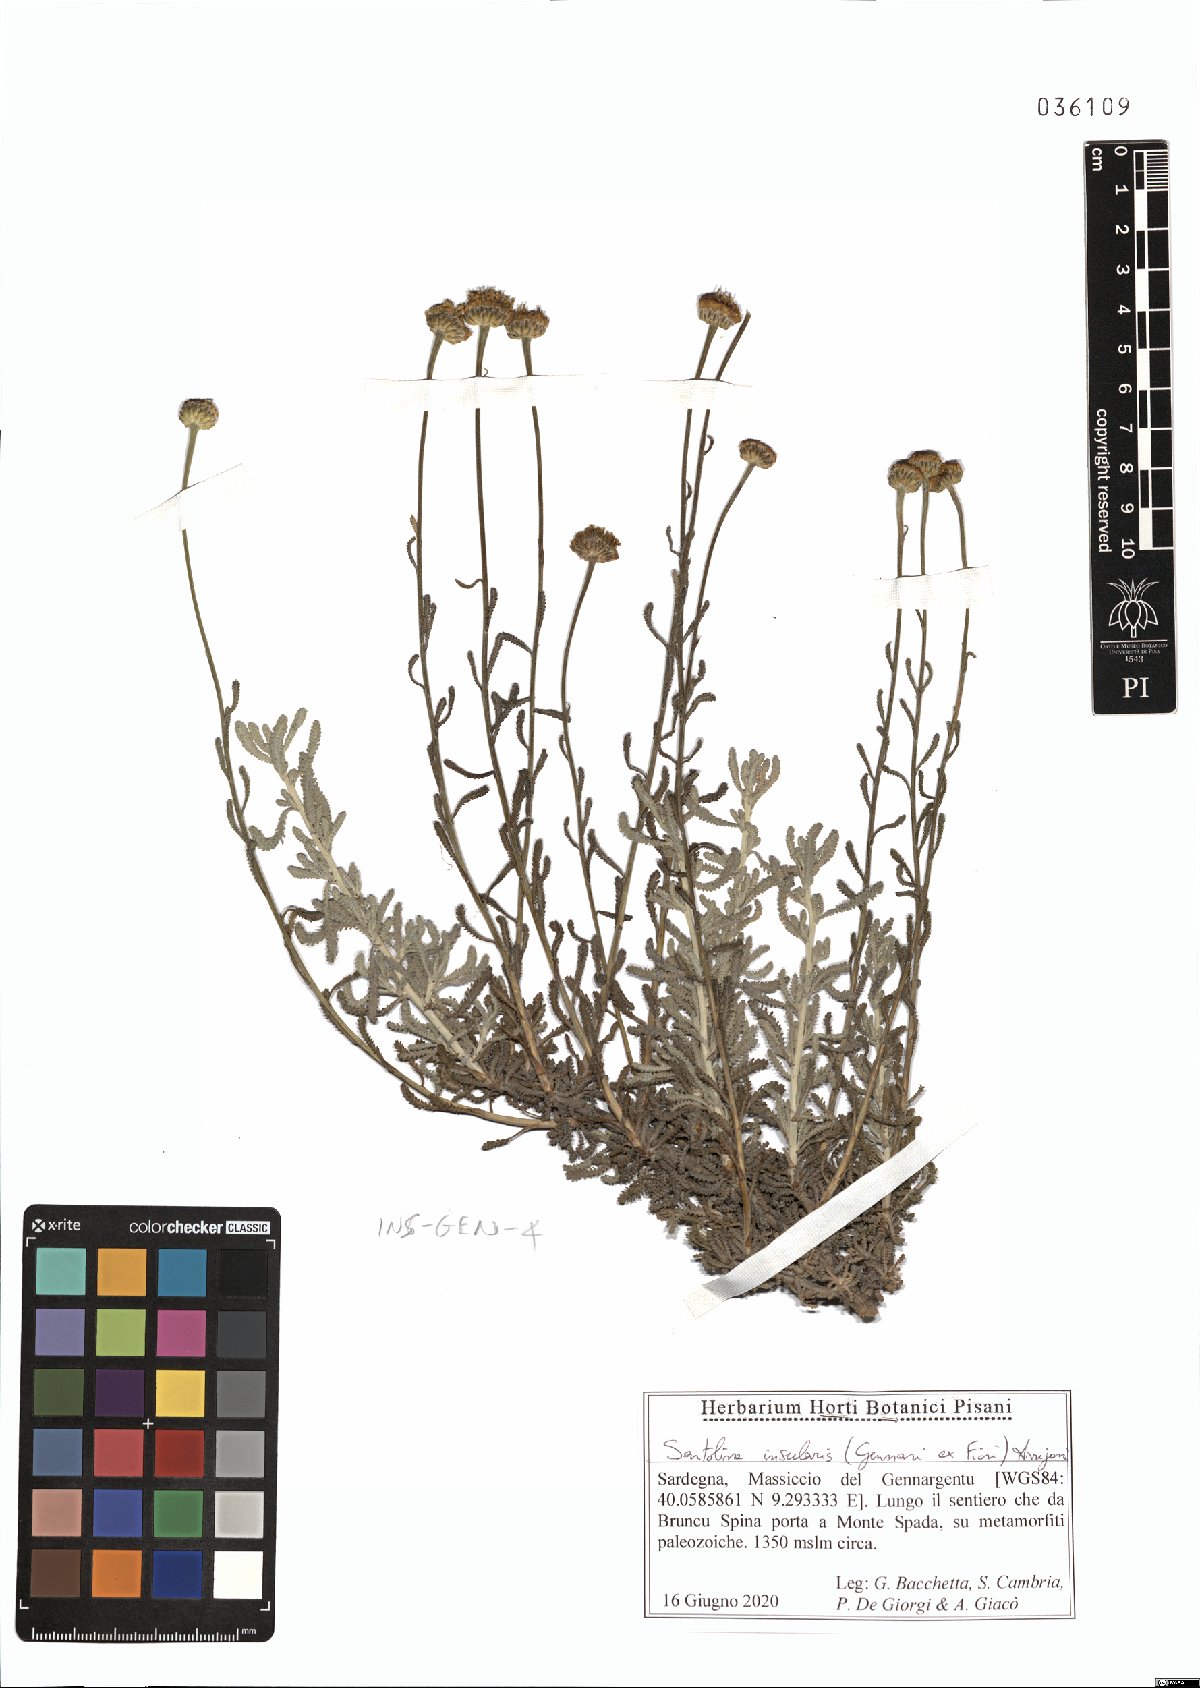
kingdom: Plantae
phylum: Tracheophyta
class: Magnoliopsida
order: Asterales
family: Asteraceae
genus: Santolina
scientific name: Santolina insularis
